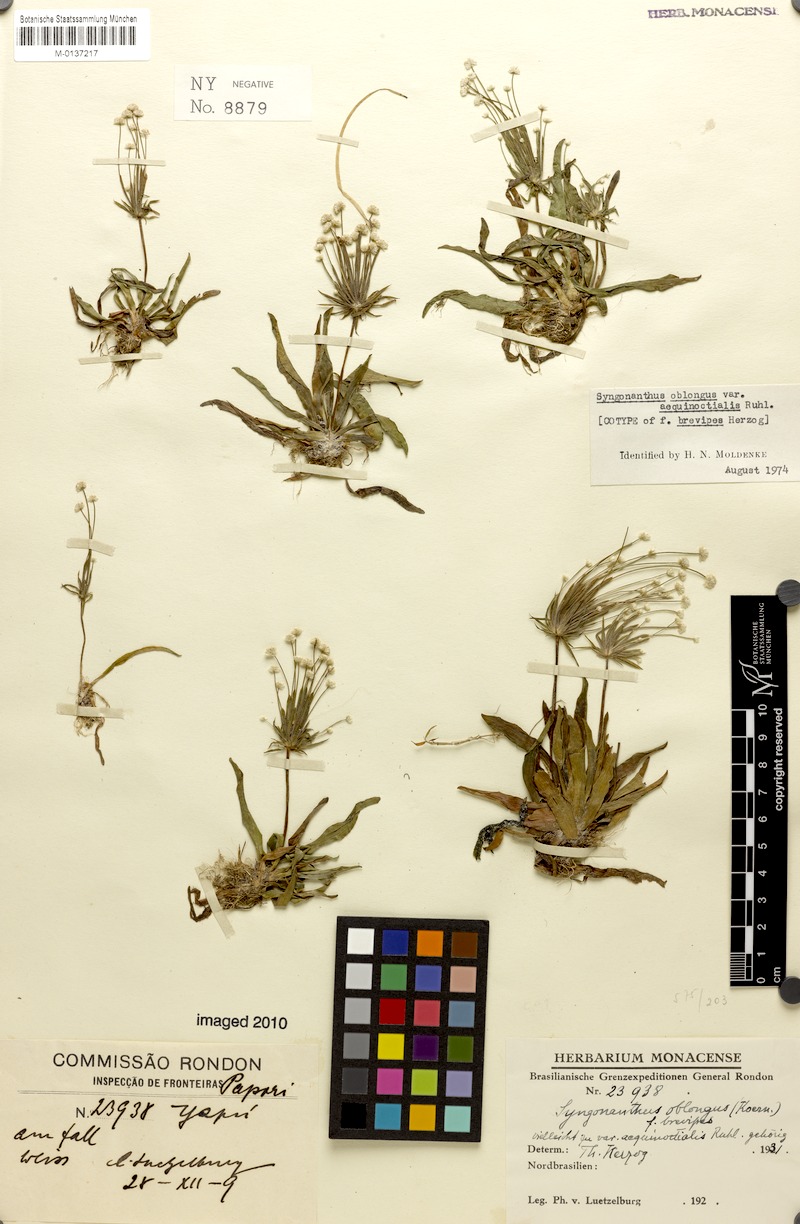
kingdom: Plantae
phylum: Tracheophyta
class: Liliopsida
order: Poales
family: Eriocaulaceae
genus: Syngonanthus
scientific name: Syngonanthus oblongus
